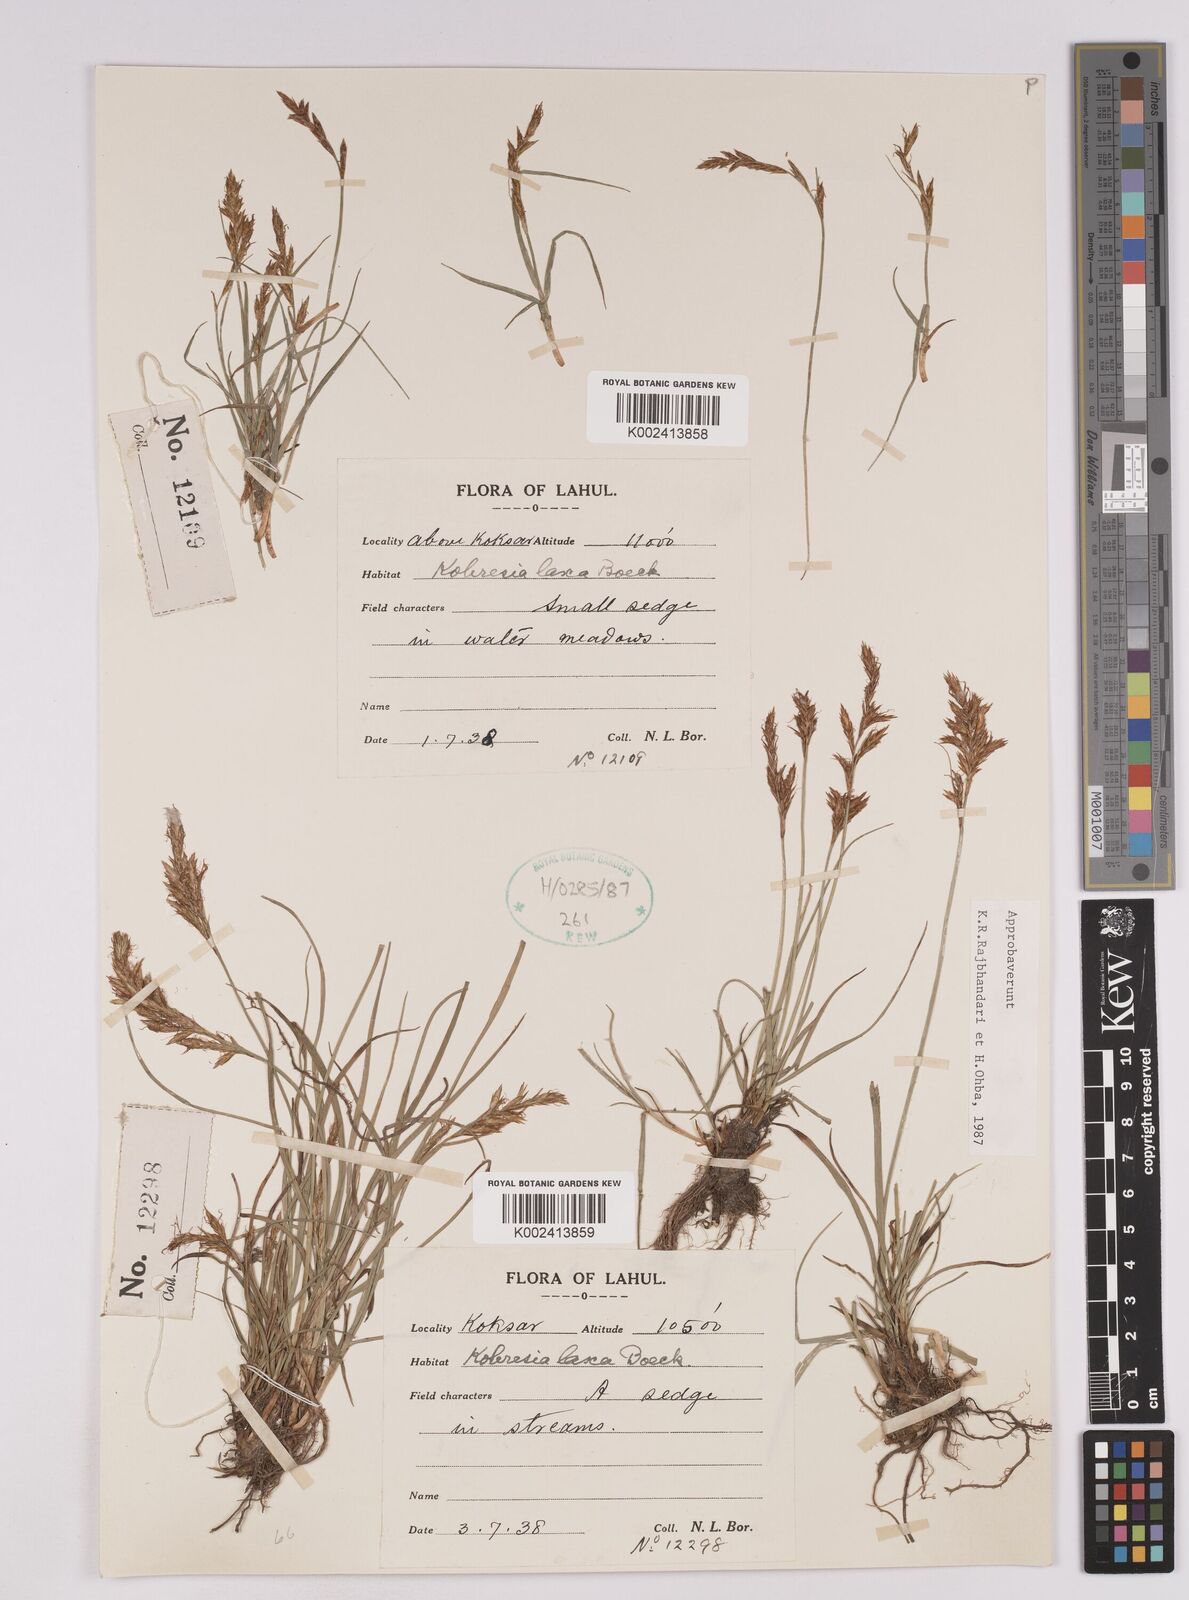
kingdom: Plantae
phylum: Tracheophyta
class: Liliopsida
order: Poales
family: Cyperaceae
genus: Carex
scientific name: Carex pseudolaxa
